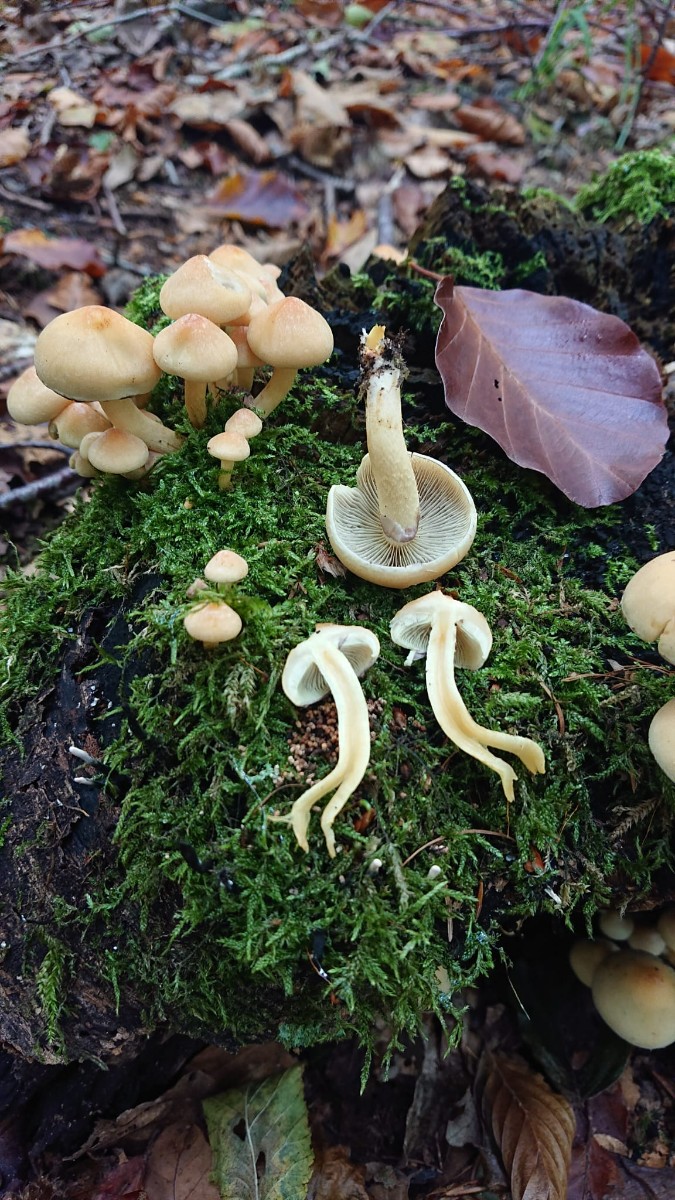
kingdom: Fungi
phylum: Basidiomycota
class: Agaricomycetes
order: Agaricales
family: Strophariaceae
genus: Hypholoma
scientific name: Hypholoma fasciculare
